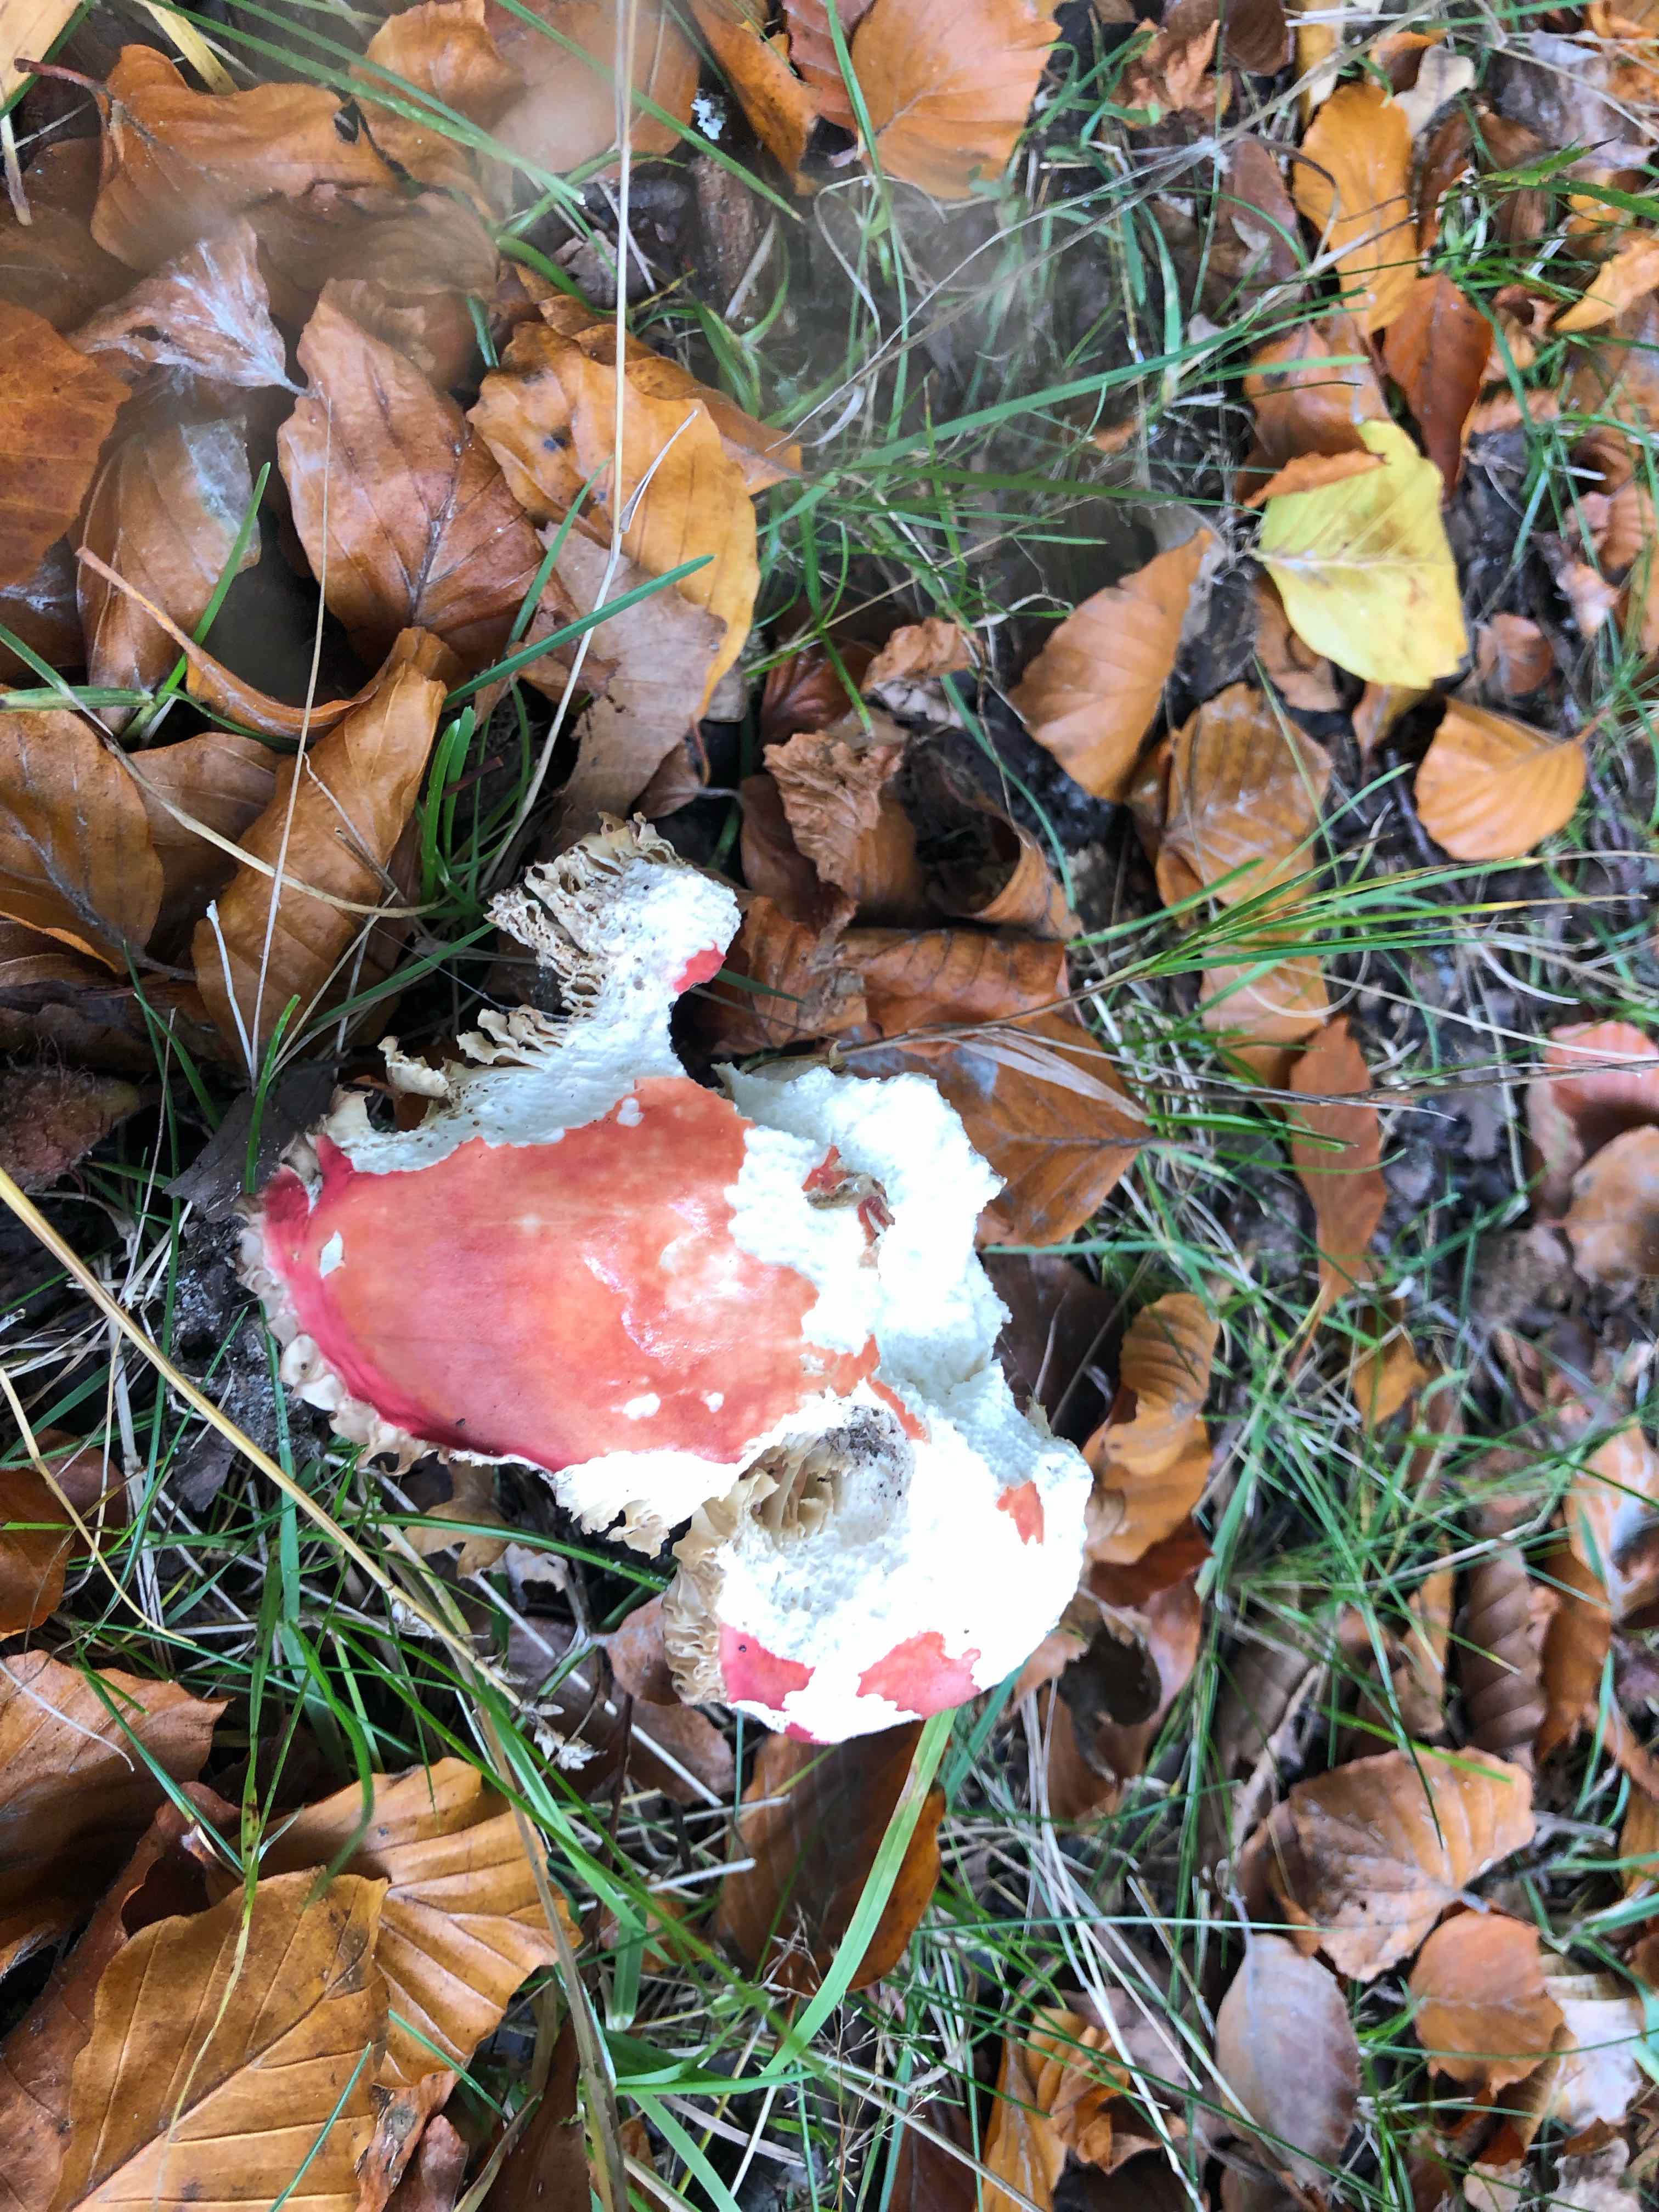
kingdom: Fungi
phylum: Basidiomycota
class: Agaricomycetes
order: Russulales
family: Russulaceae
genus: Russula
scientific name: Russula rosea
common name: fastkødet skørhat
